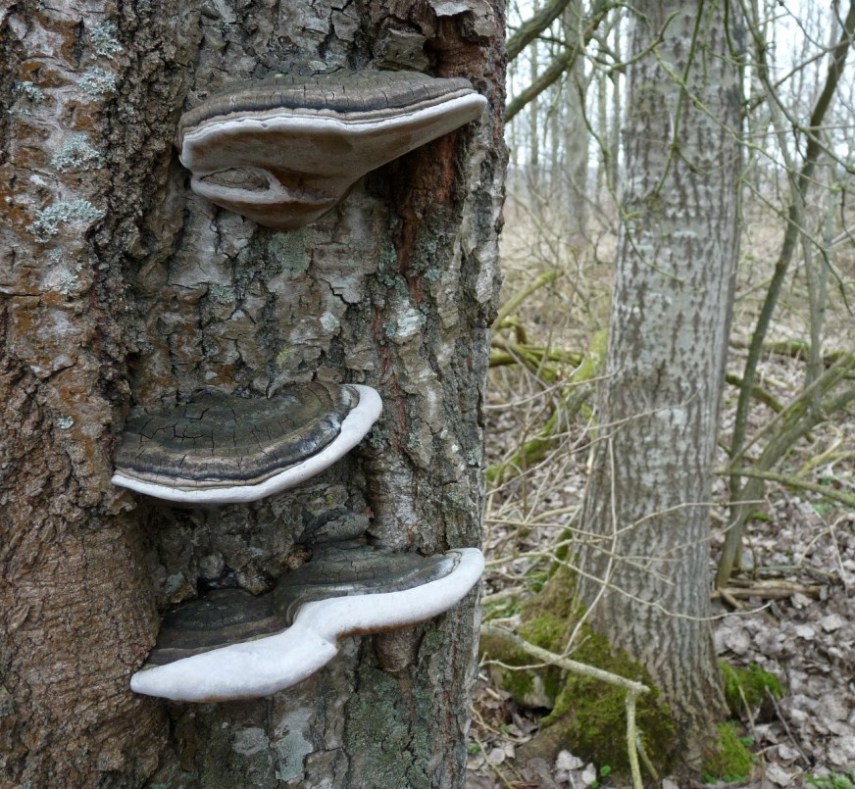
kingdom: Fungi
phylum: Basidiomycota
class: Agaricomycetes
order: Hymenochaetales
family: Hymenochaetaceae
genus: Phellinus
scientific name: Phellinus populicola
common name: poppel-ildporesvamp
